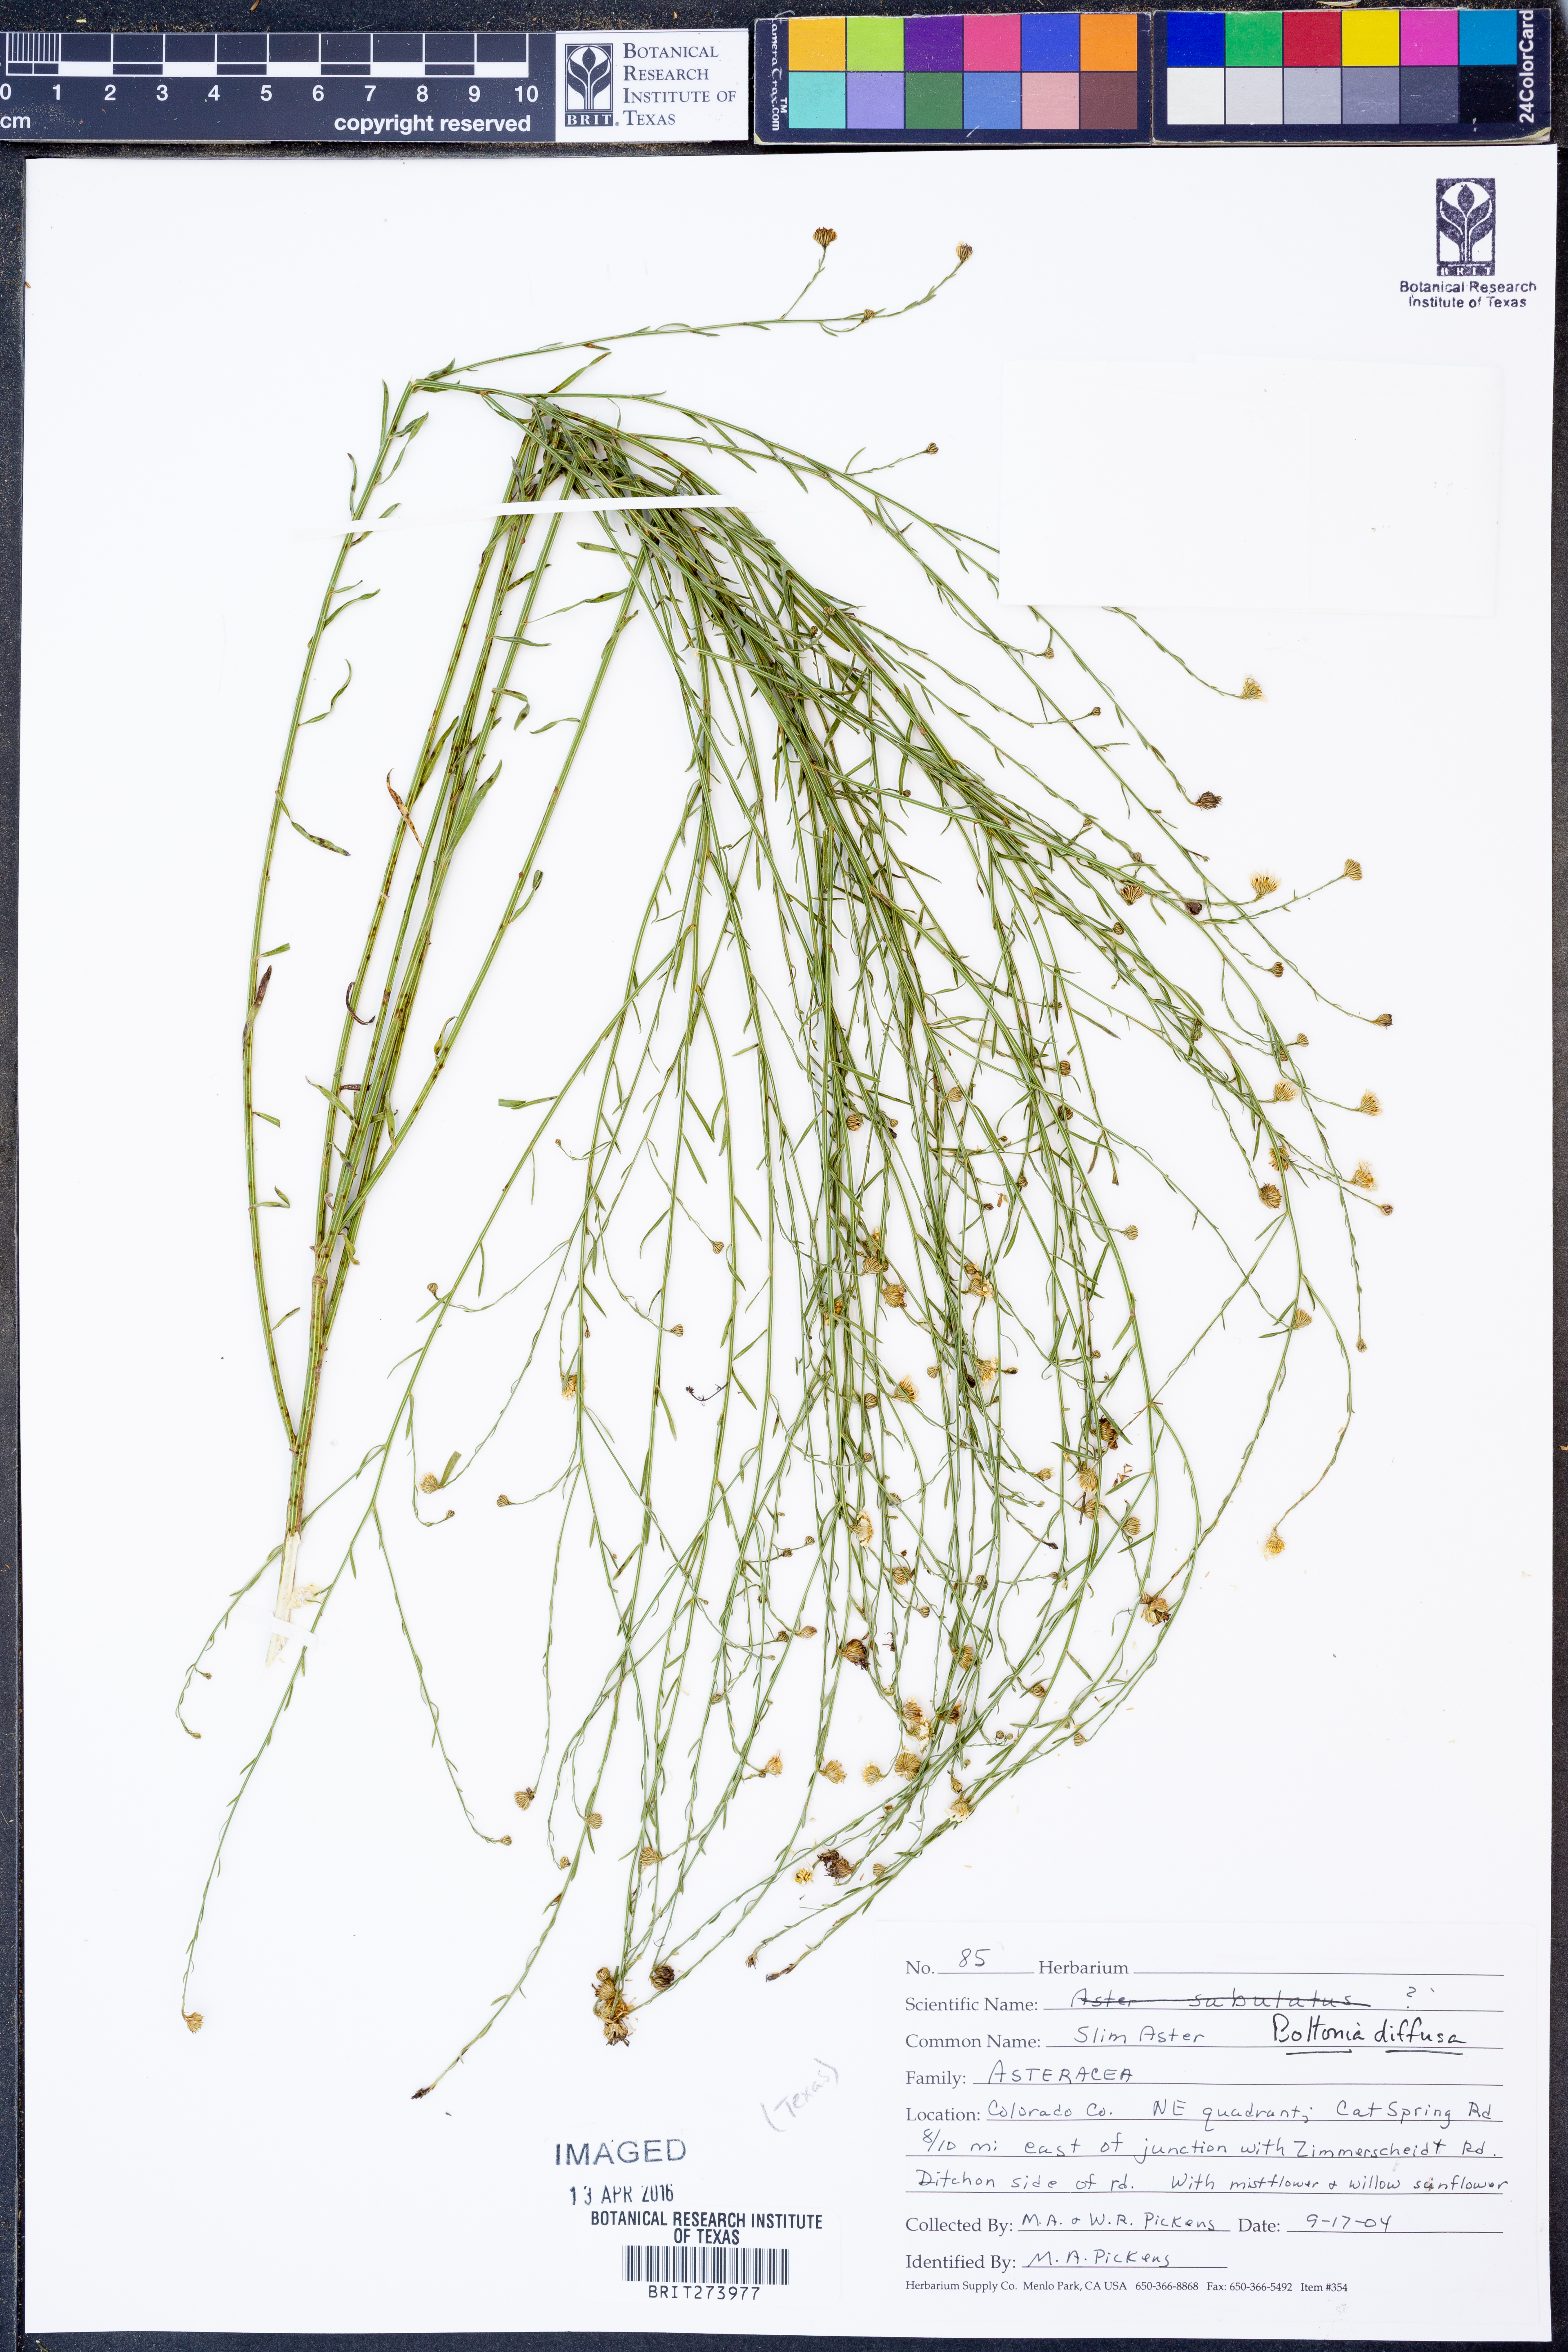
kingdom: Plantae
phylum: Tracheophyta
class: Magnoliopsida
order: Asterales
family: Asteraceae
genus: Boltonia
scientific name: Boltonia diffusa
